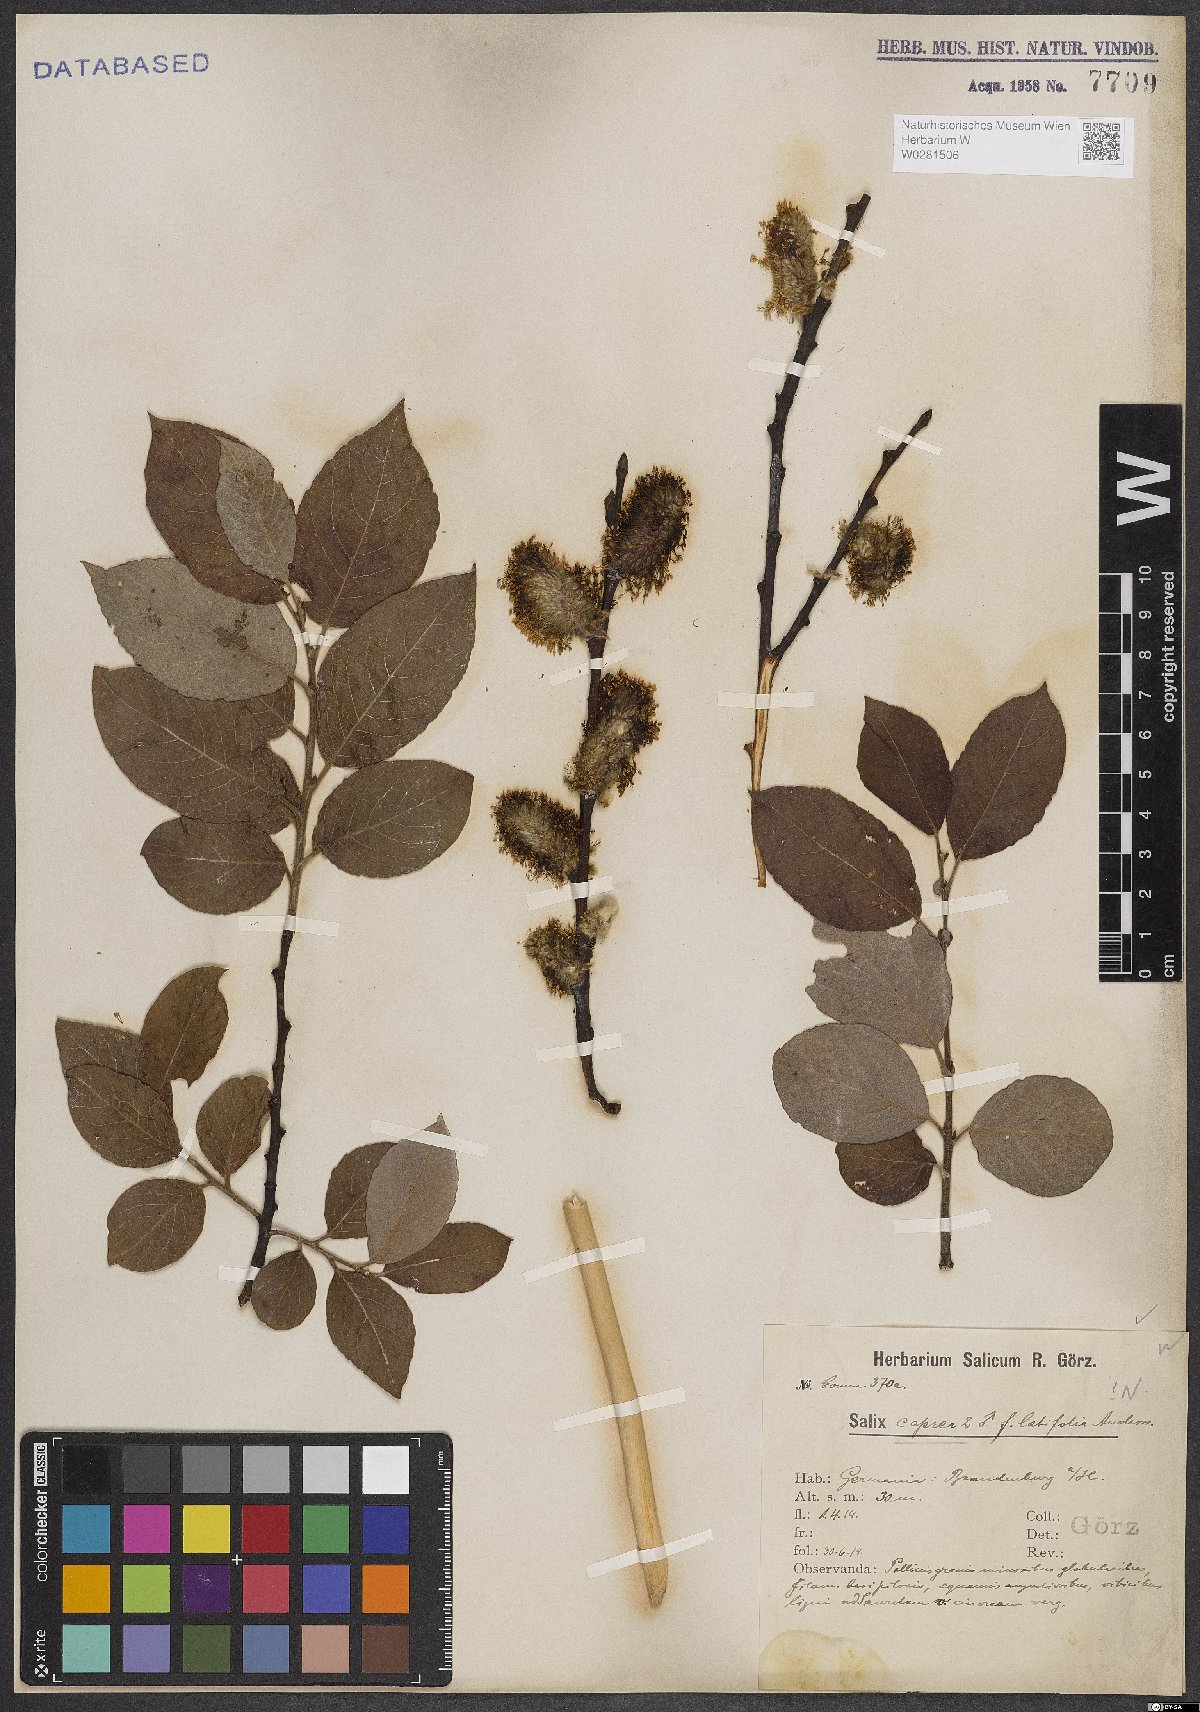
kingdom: Plantae
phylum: Tracheophyta
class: Magnoliopsida
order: Malpighiales
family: Salicaceae
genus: Salix
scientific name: Salix caprea
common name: Goat willow
